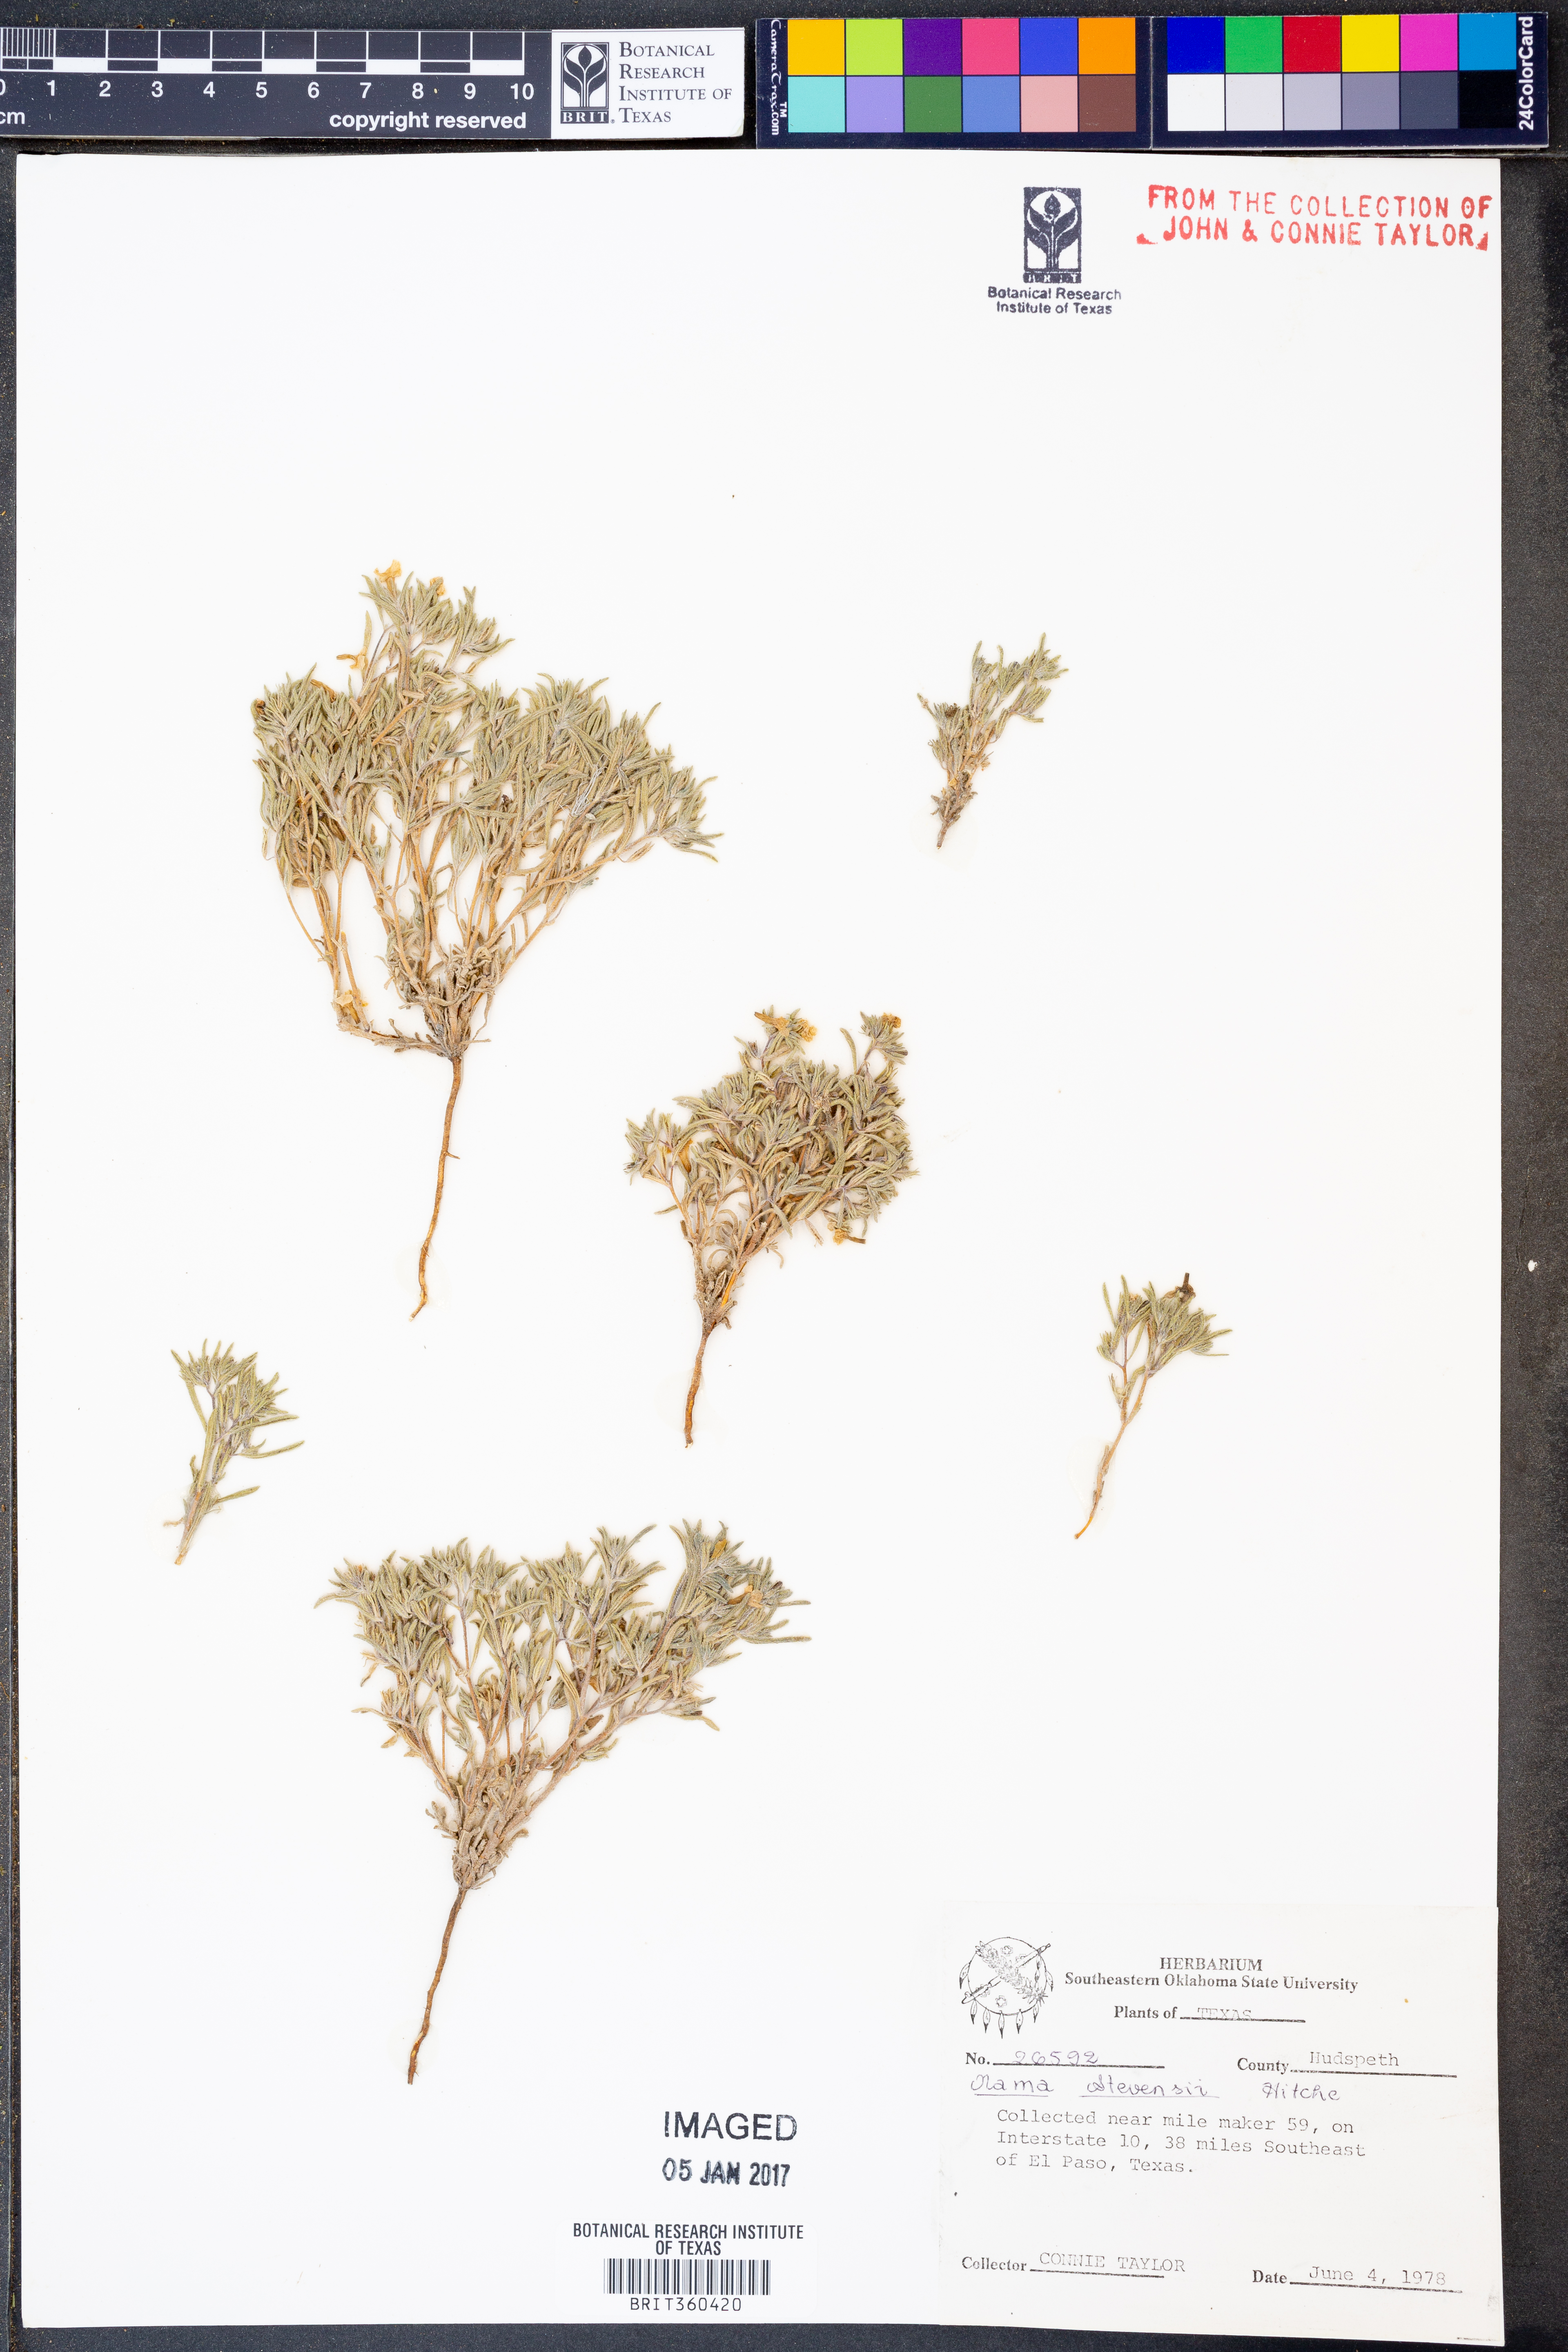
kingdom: Plantae
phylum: Tracheophyta
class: Magnoliopsida
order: Boraginales
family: Namaceae
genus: Nama
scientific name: Nama stevensii
